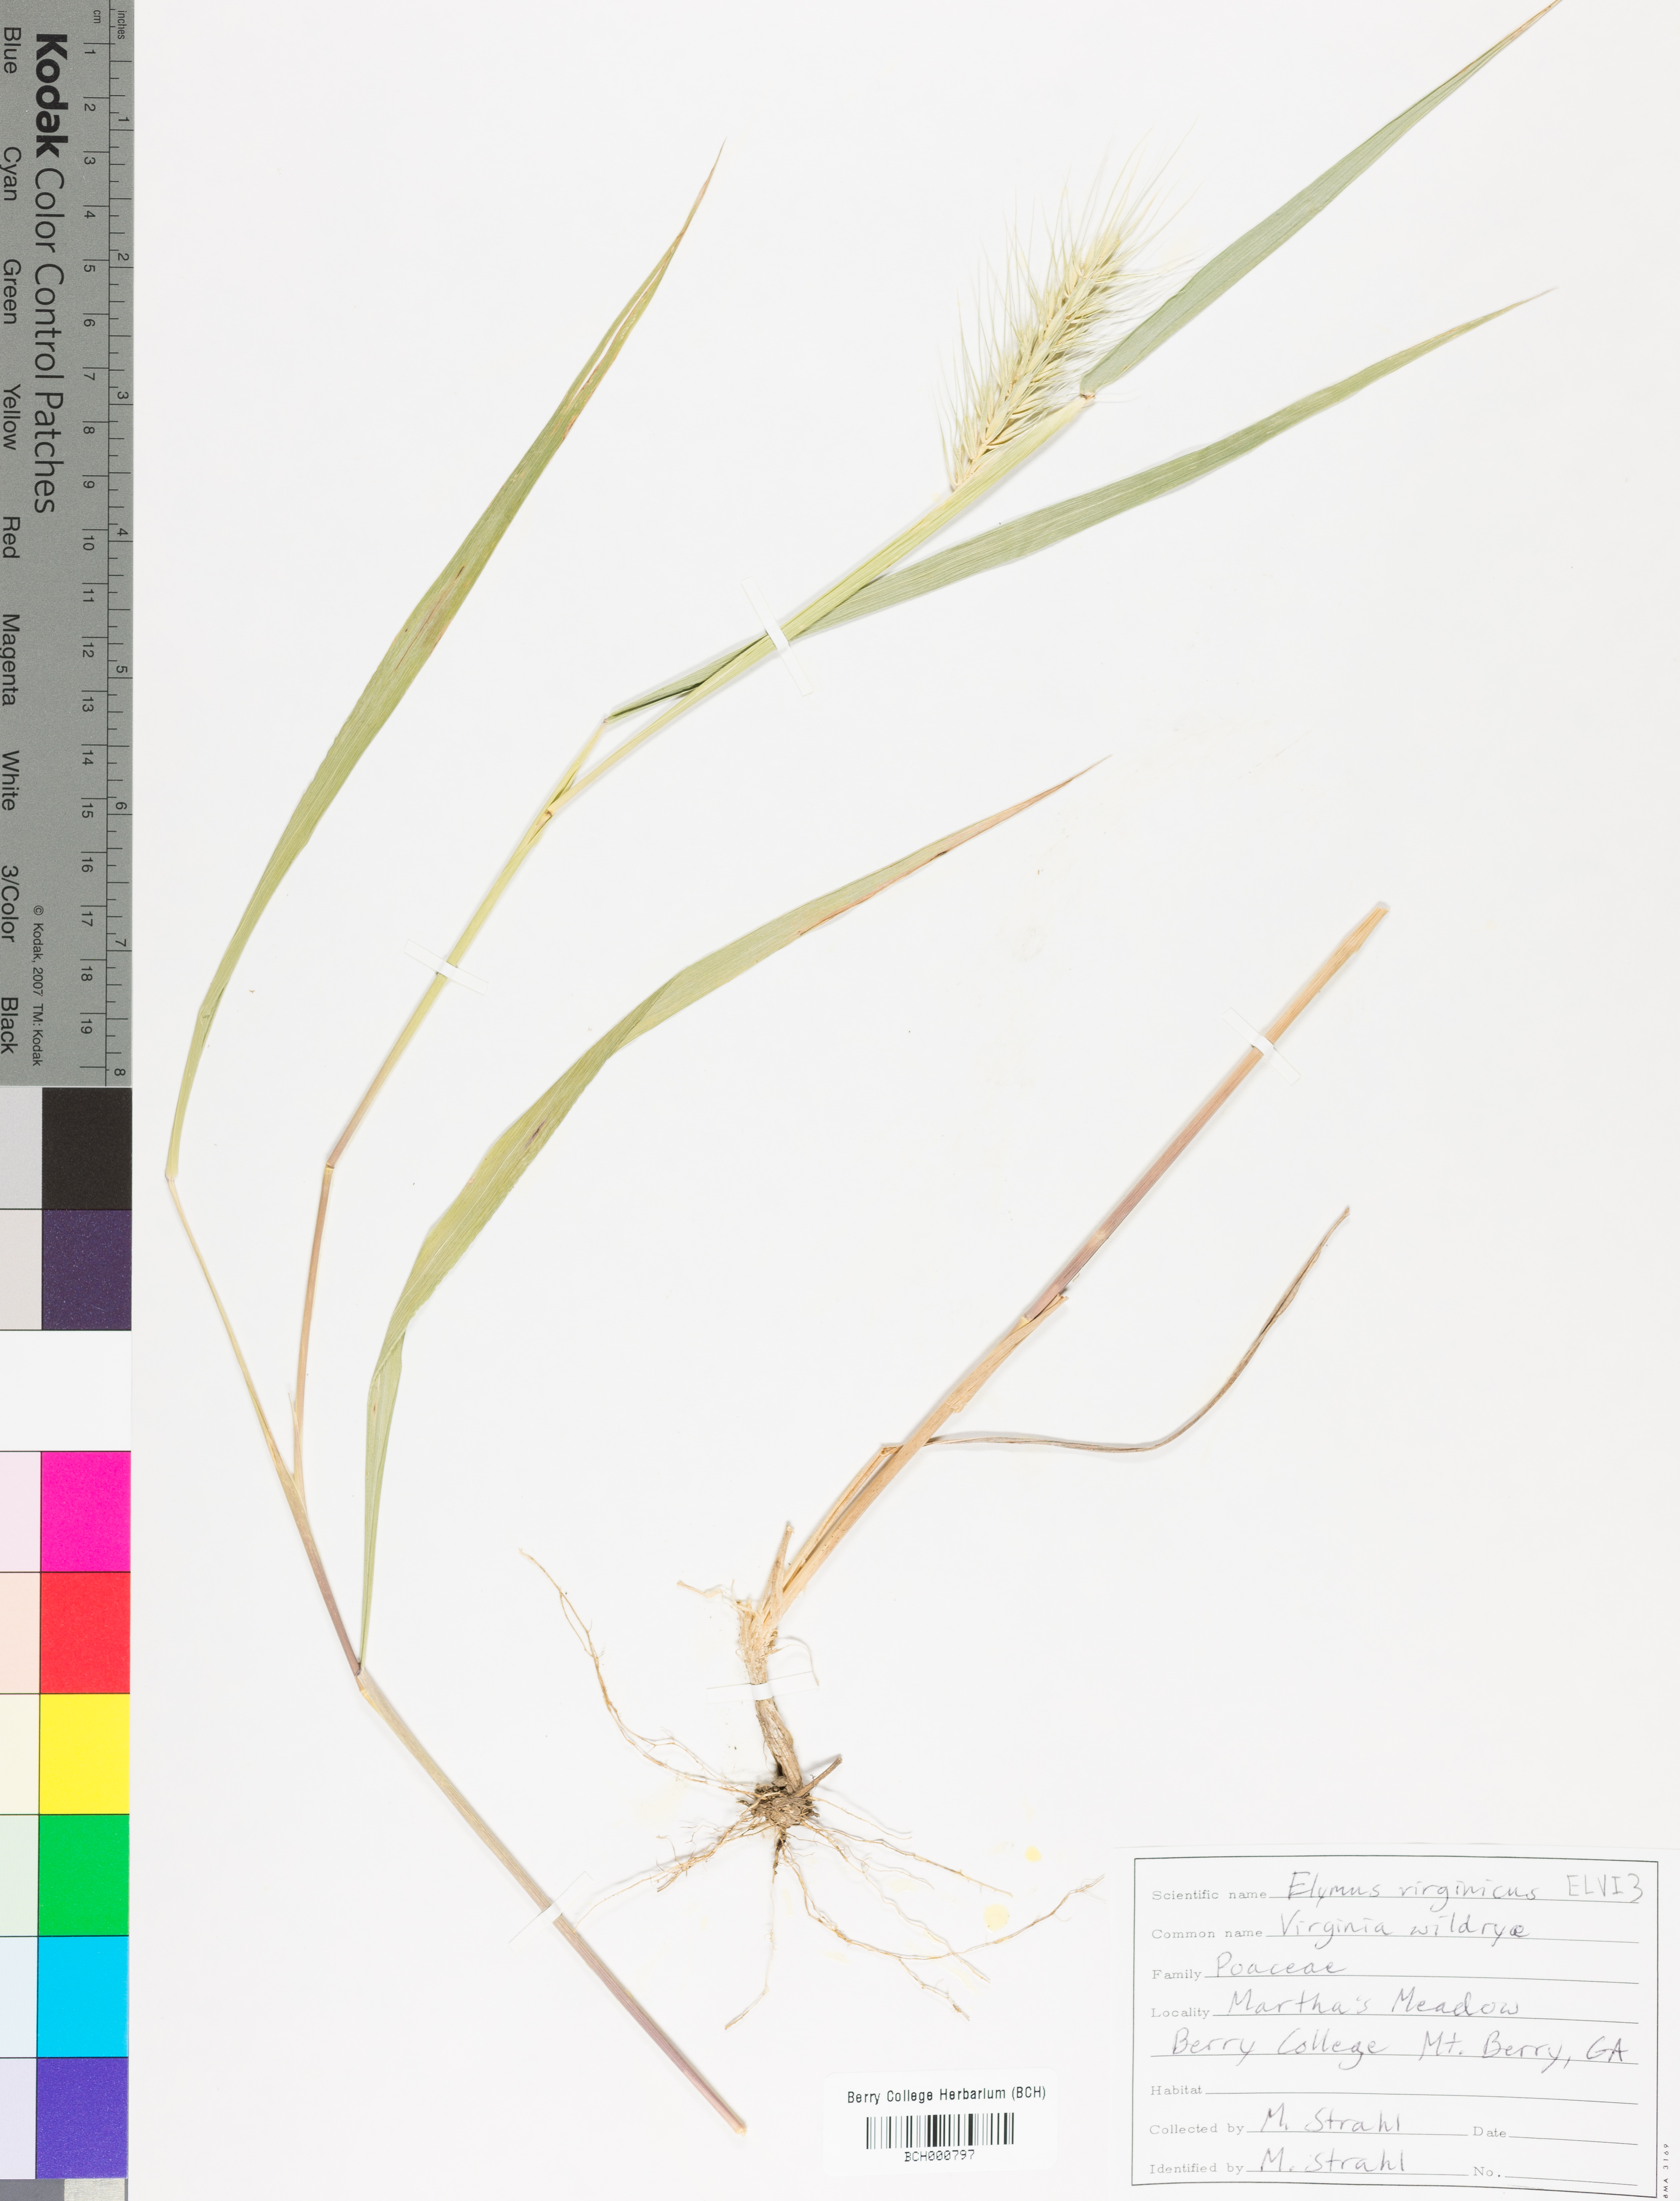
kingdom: Plantae
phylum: Tracheophyta
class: Liliopsida
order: Poales
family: Poaceae
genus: Elymus
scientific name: Elymus virginicus
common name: Common eastern wildrye
